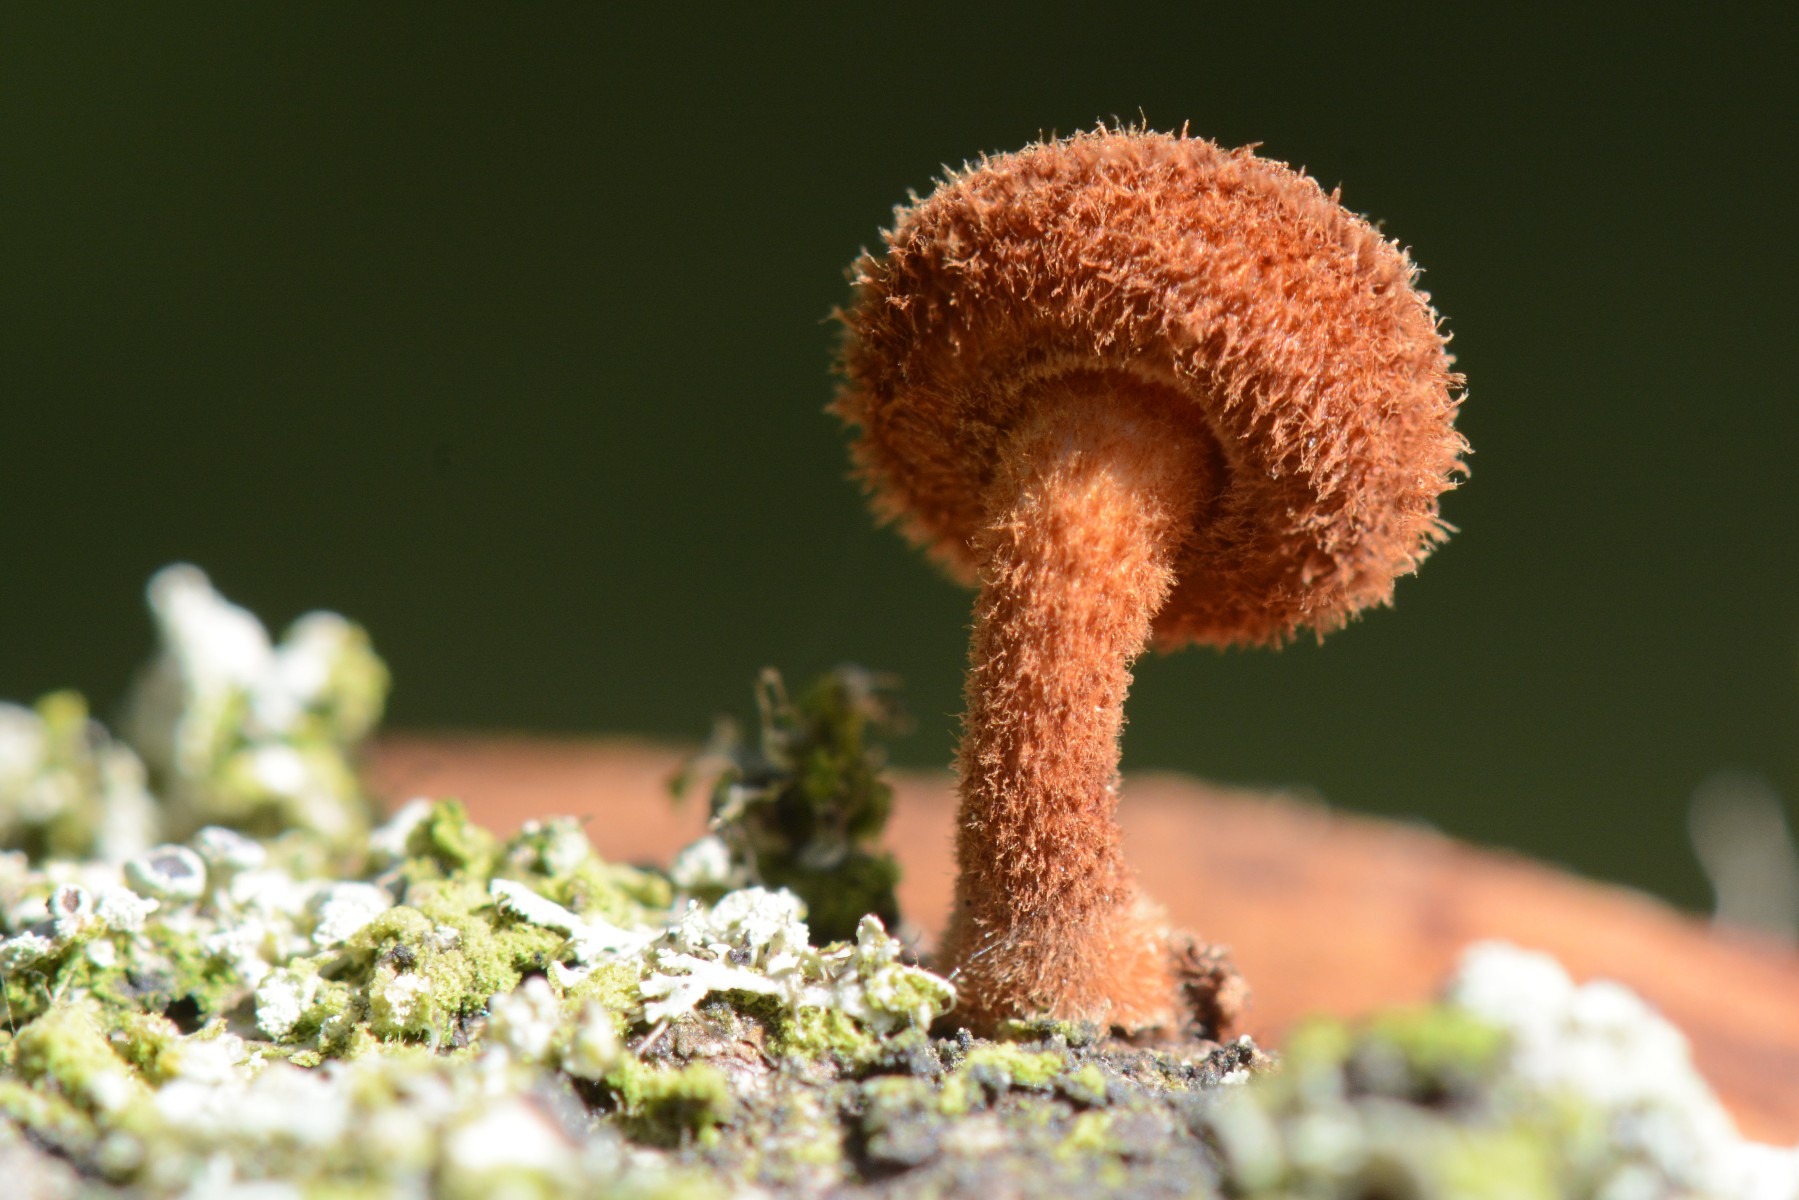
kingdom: Fungi
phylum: Basidiomycota
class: Agaricomycetes
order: Agaricales
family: Tubariaceae
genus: Phaeomarasmius
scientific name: Phaeomarasmius erinaceus
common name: spidsskælhat
